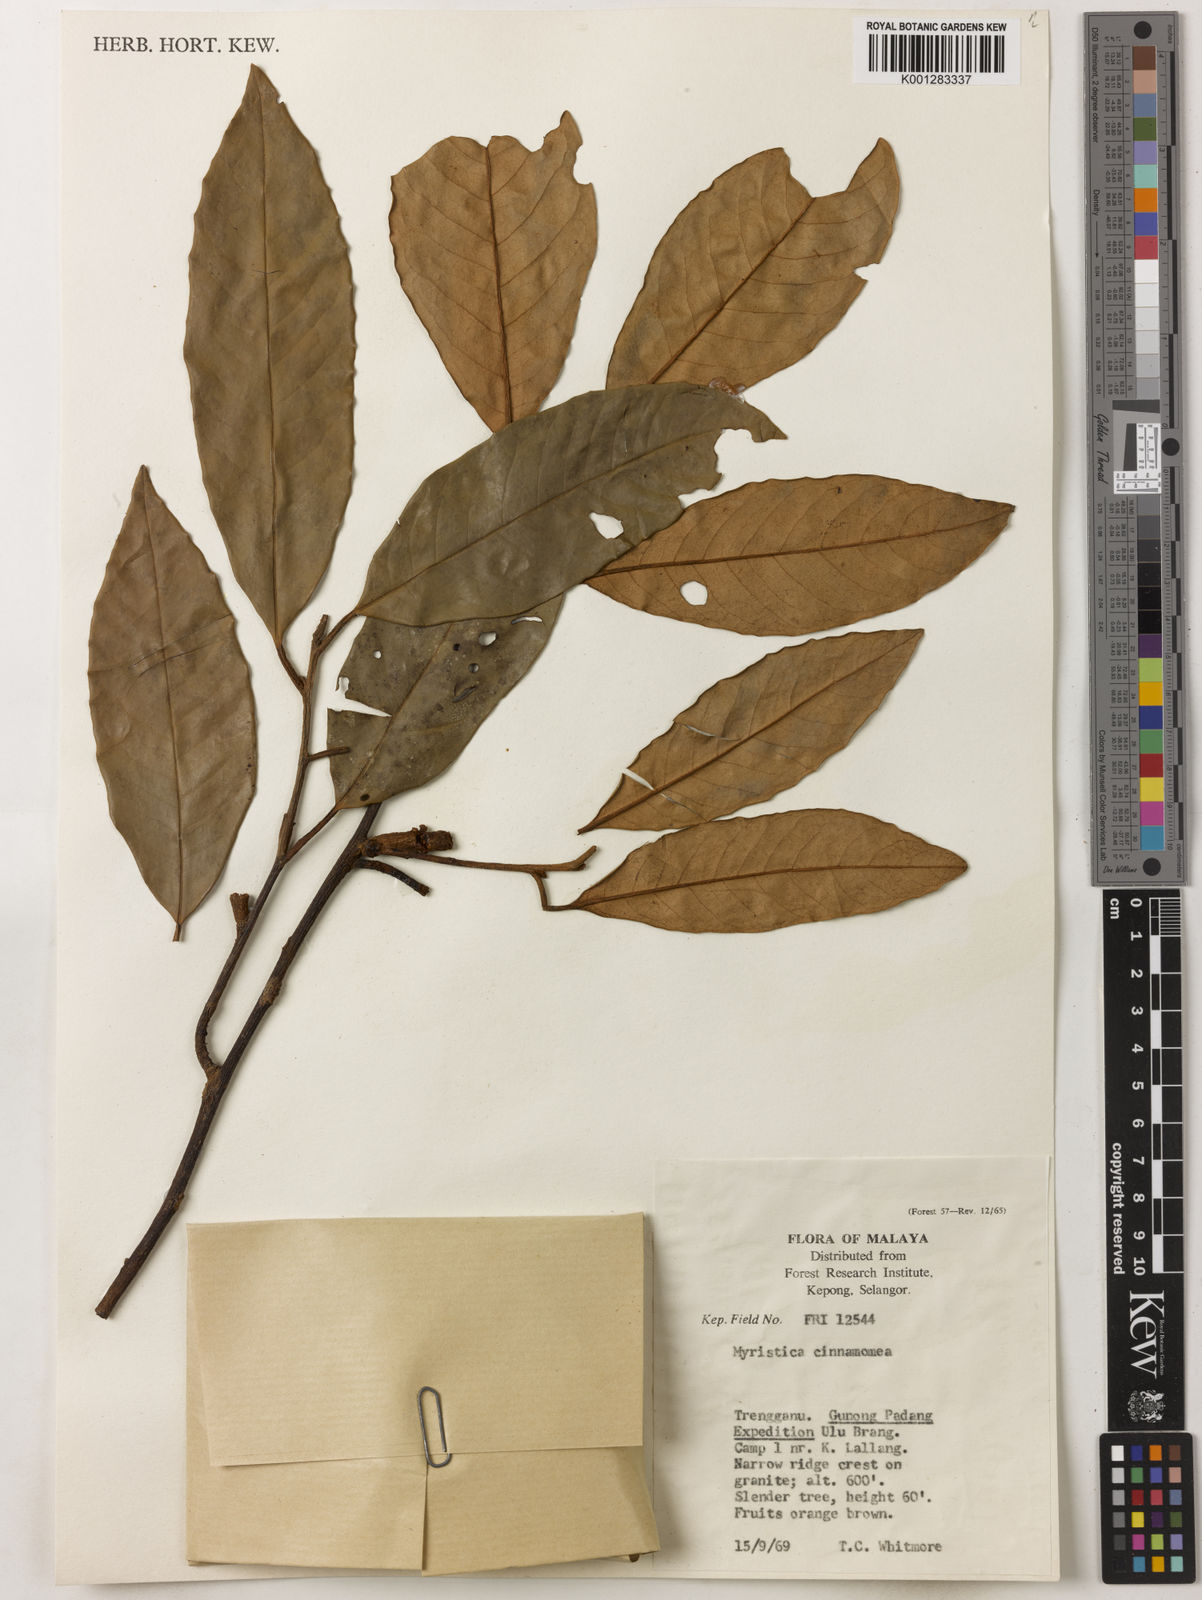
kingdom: Plantae
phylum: Tracheophyta
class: Magnoliopsida
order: Magnoliales
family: Myristicaceae
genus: Myristica
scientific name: Myristica cinnamomea
